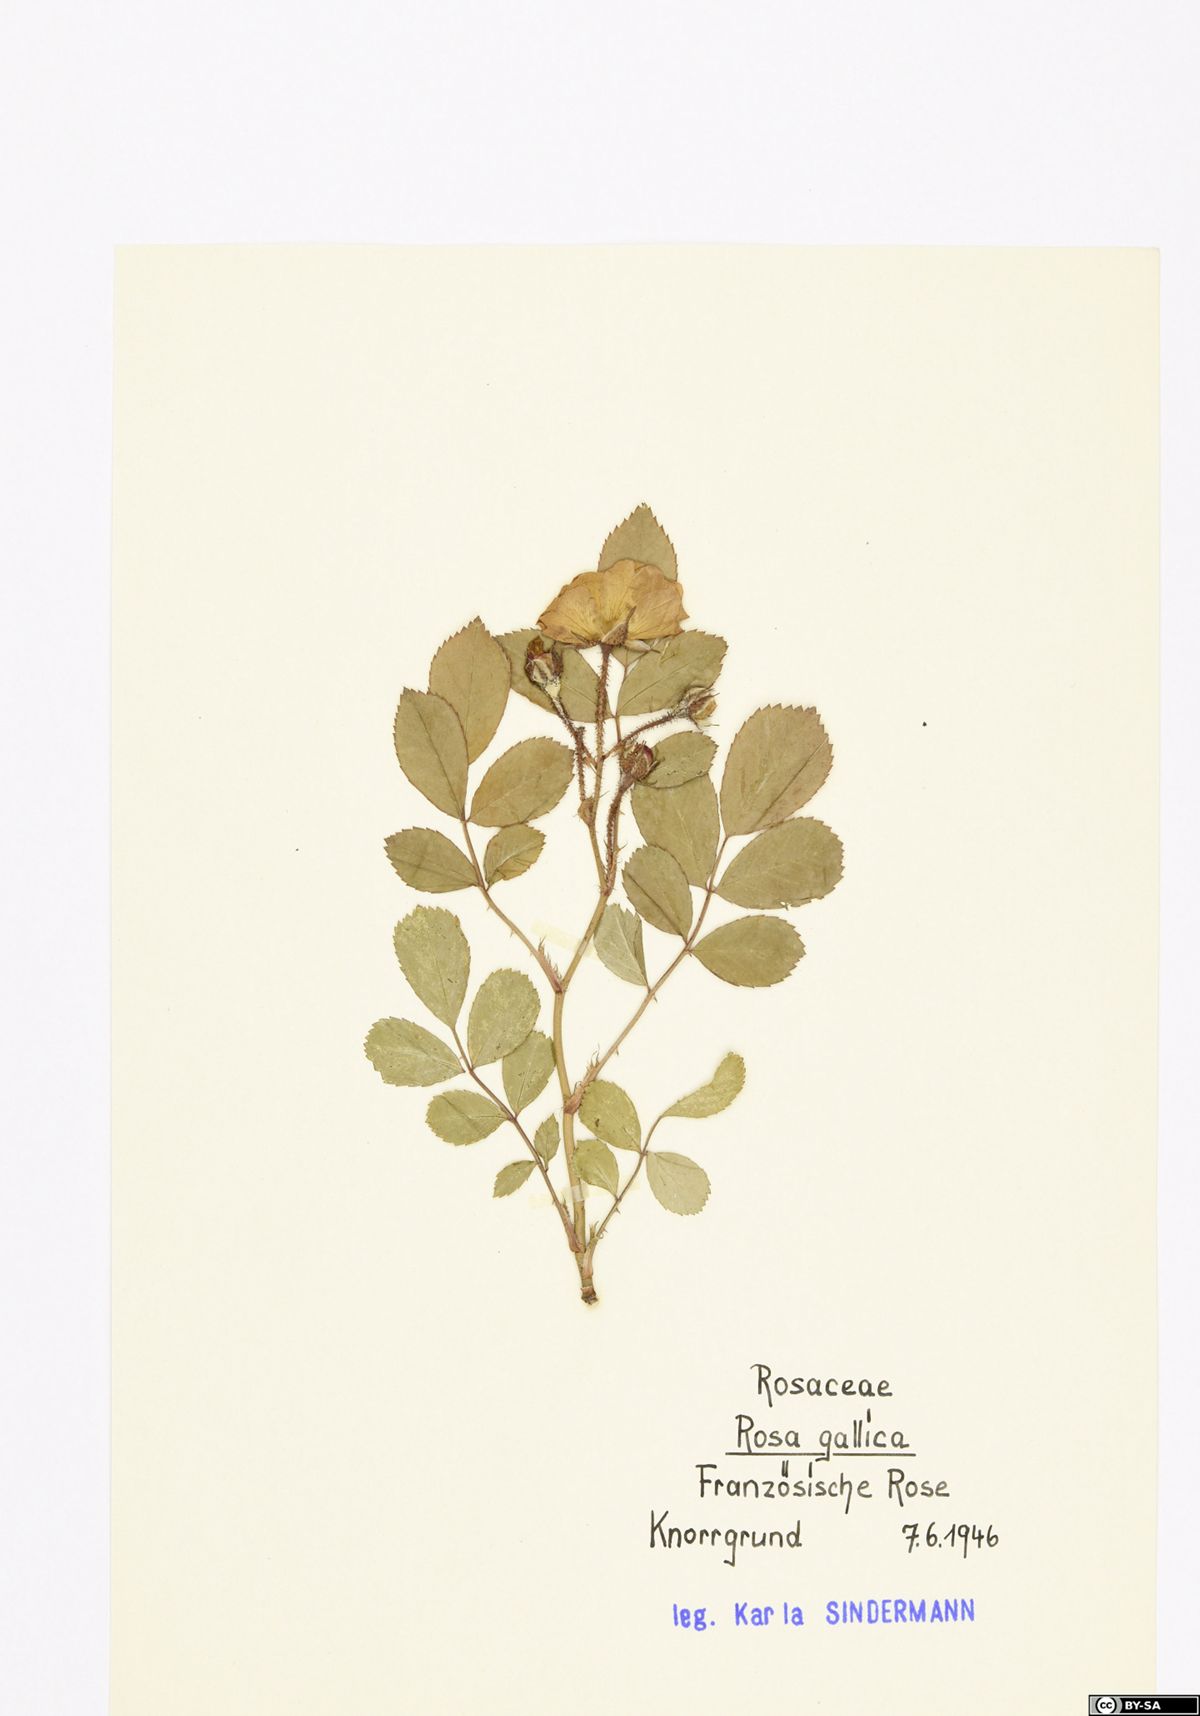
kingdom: Plantae
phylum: Tracheophyta
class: Magnoliopsida
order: Rosales
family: Rosaceae
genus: Rosa
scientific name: Rosa gallica
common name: French rose
